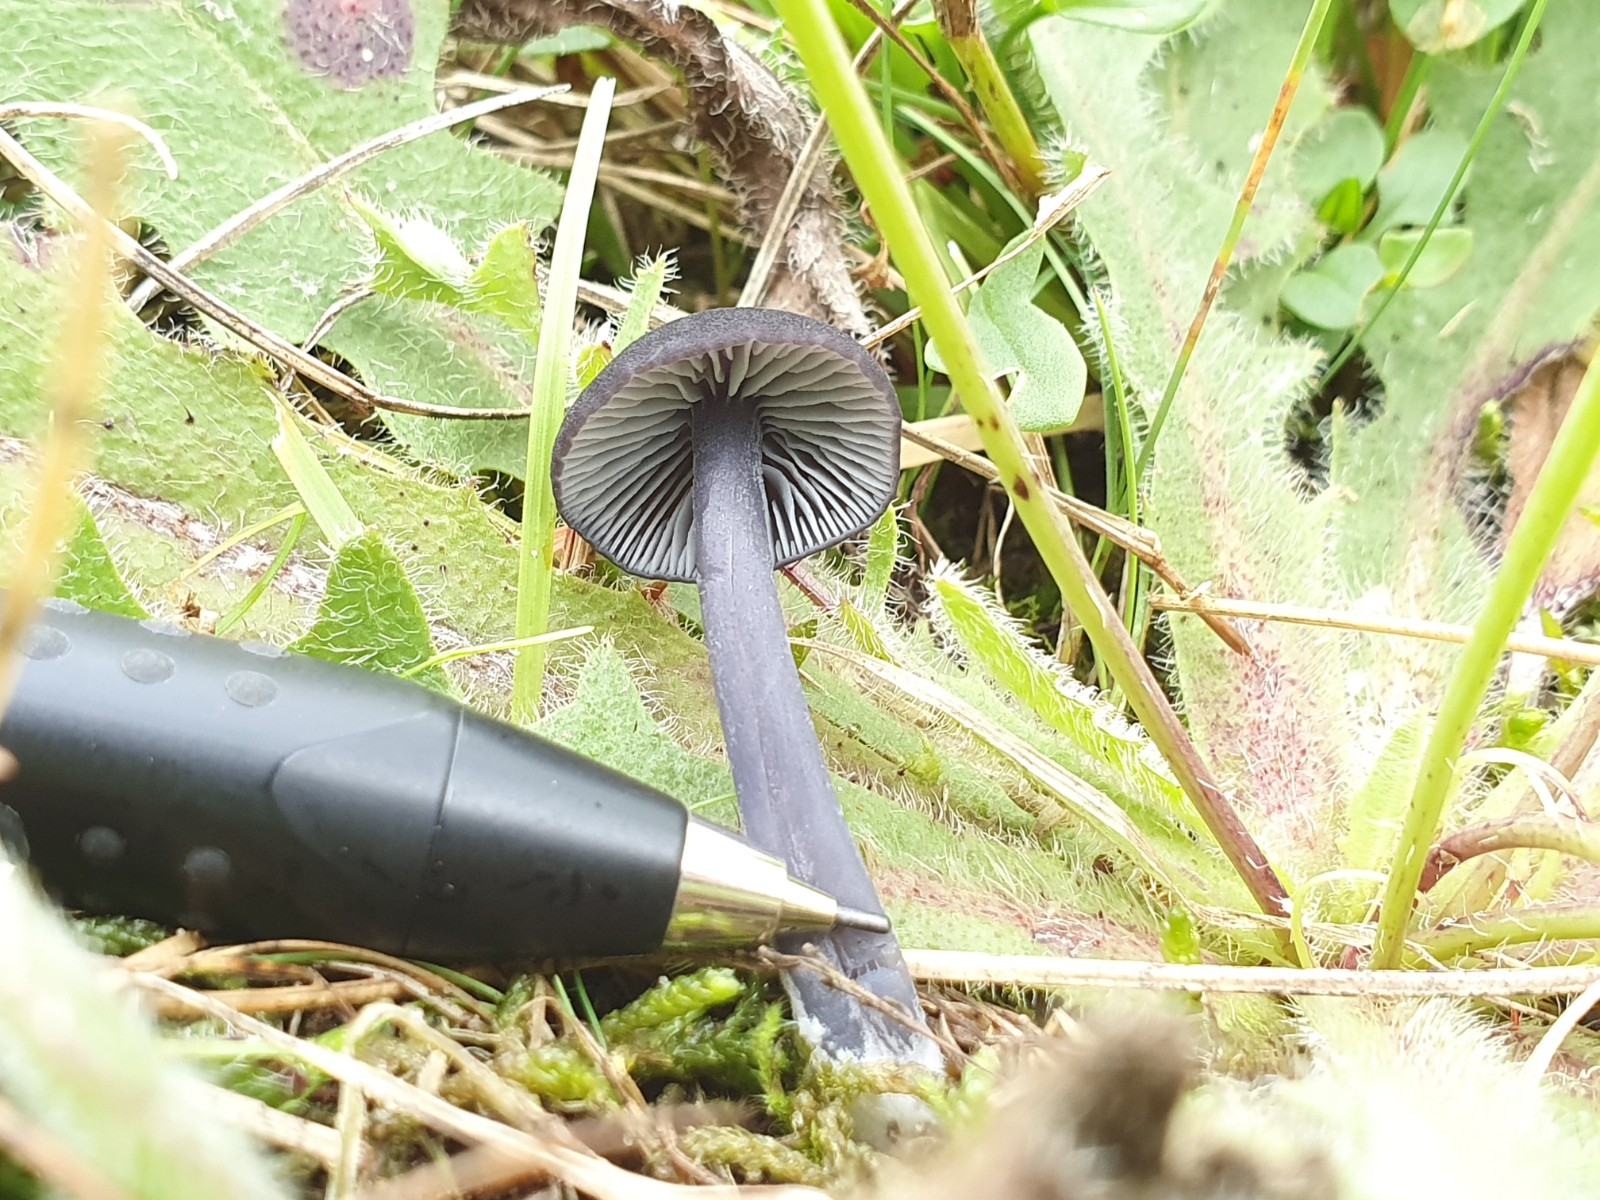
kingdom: Fungi
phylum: Basidiomycota
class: Agaricomycetes
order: Agaricales
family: Entolomataceae
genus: Entoloma
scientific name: Entoloma chalybeum
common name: blåbladet rødblad
